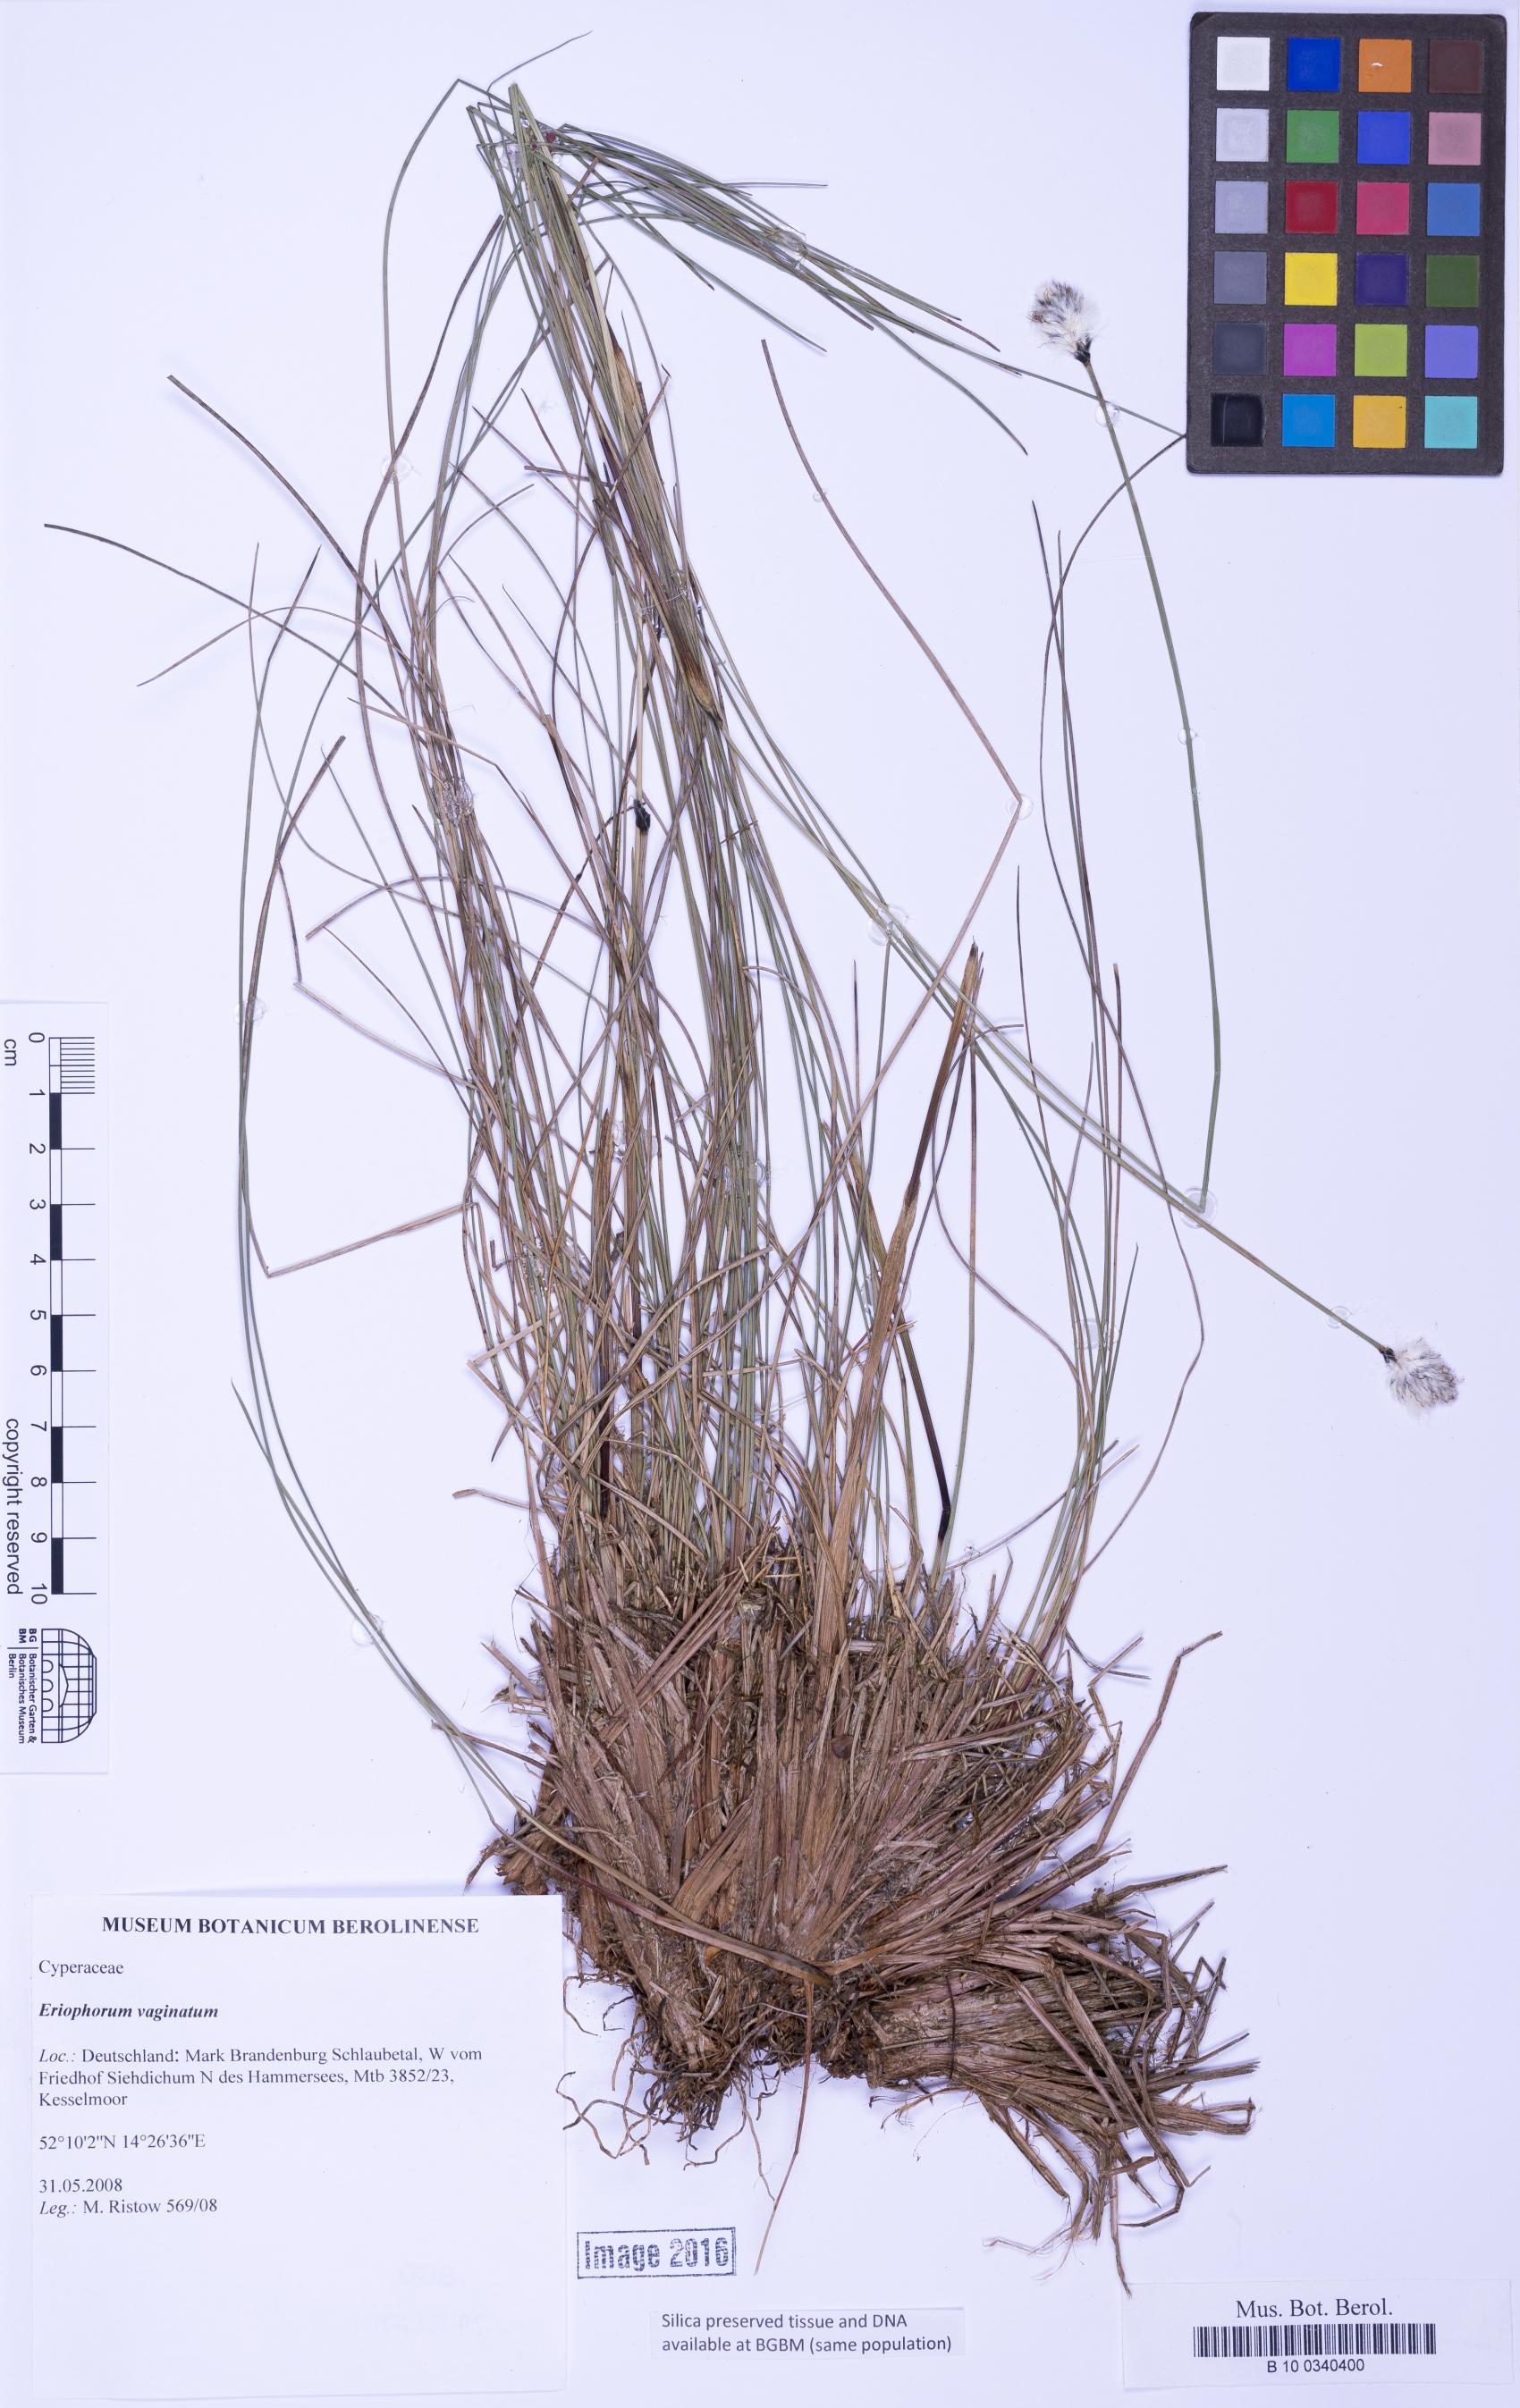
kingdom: Plantae
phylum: Tracheophyta
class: Liliopsida
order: Poales
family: Cyperaceae
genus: Eriophorum
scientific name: Eriophorum vaginatum
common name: Hare's-tail cottongrass
